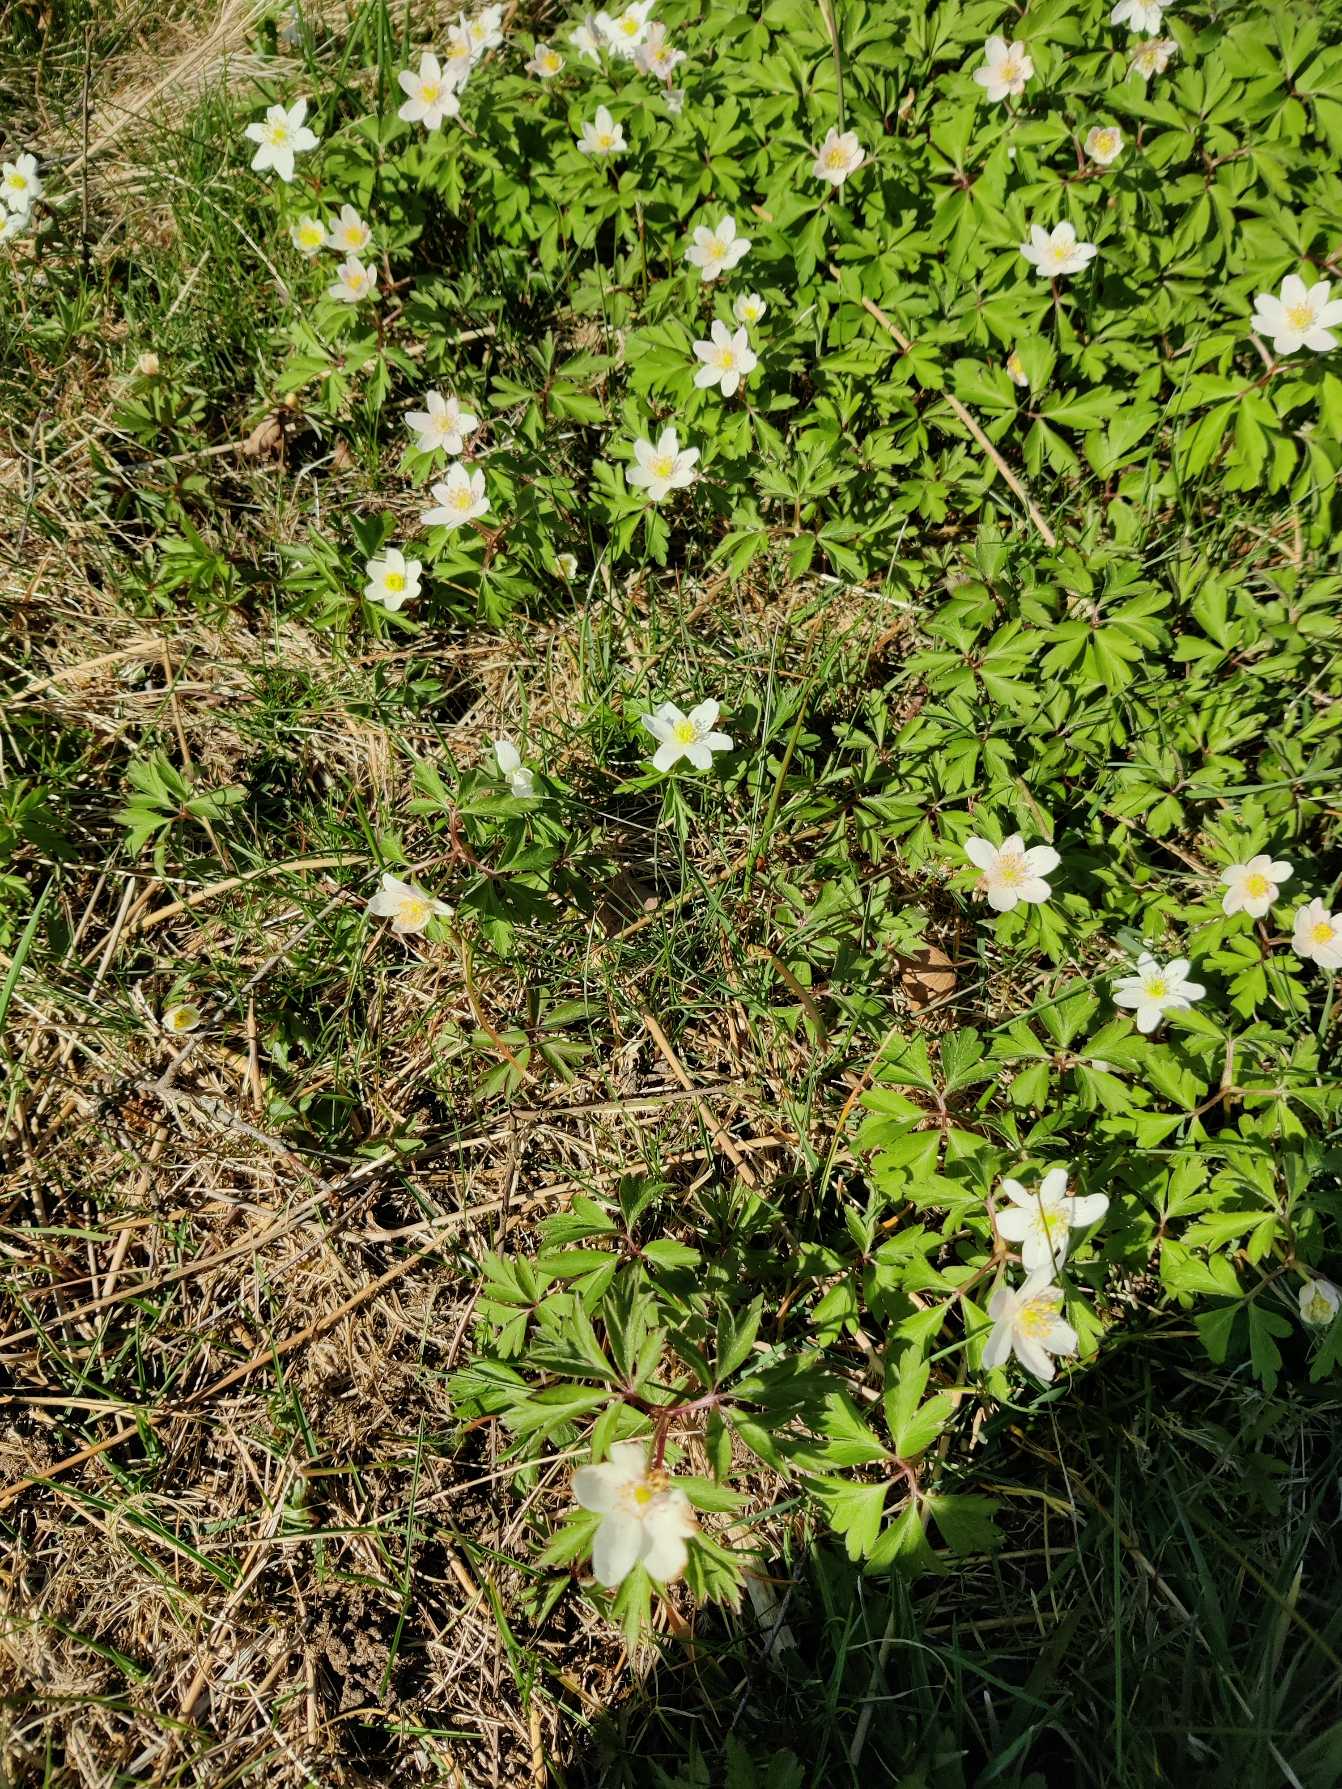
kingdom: Plantae
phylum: Tracheophyta
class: Magnoliopsida
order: Ranunculales
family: Ranunculaceae
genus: Anemone
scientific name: Anemone nemorosa
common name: Hvid anemone
